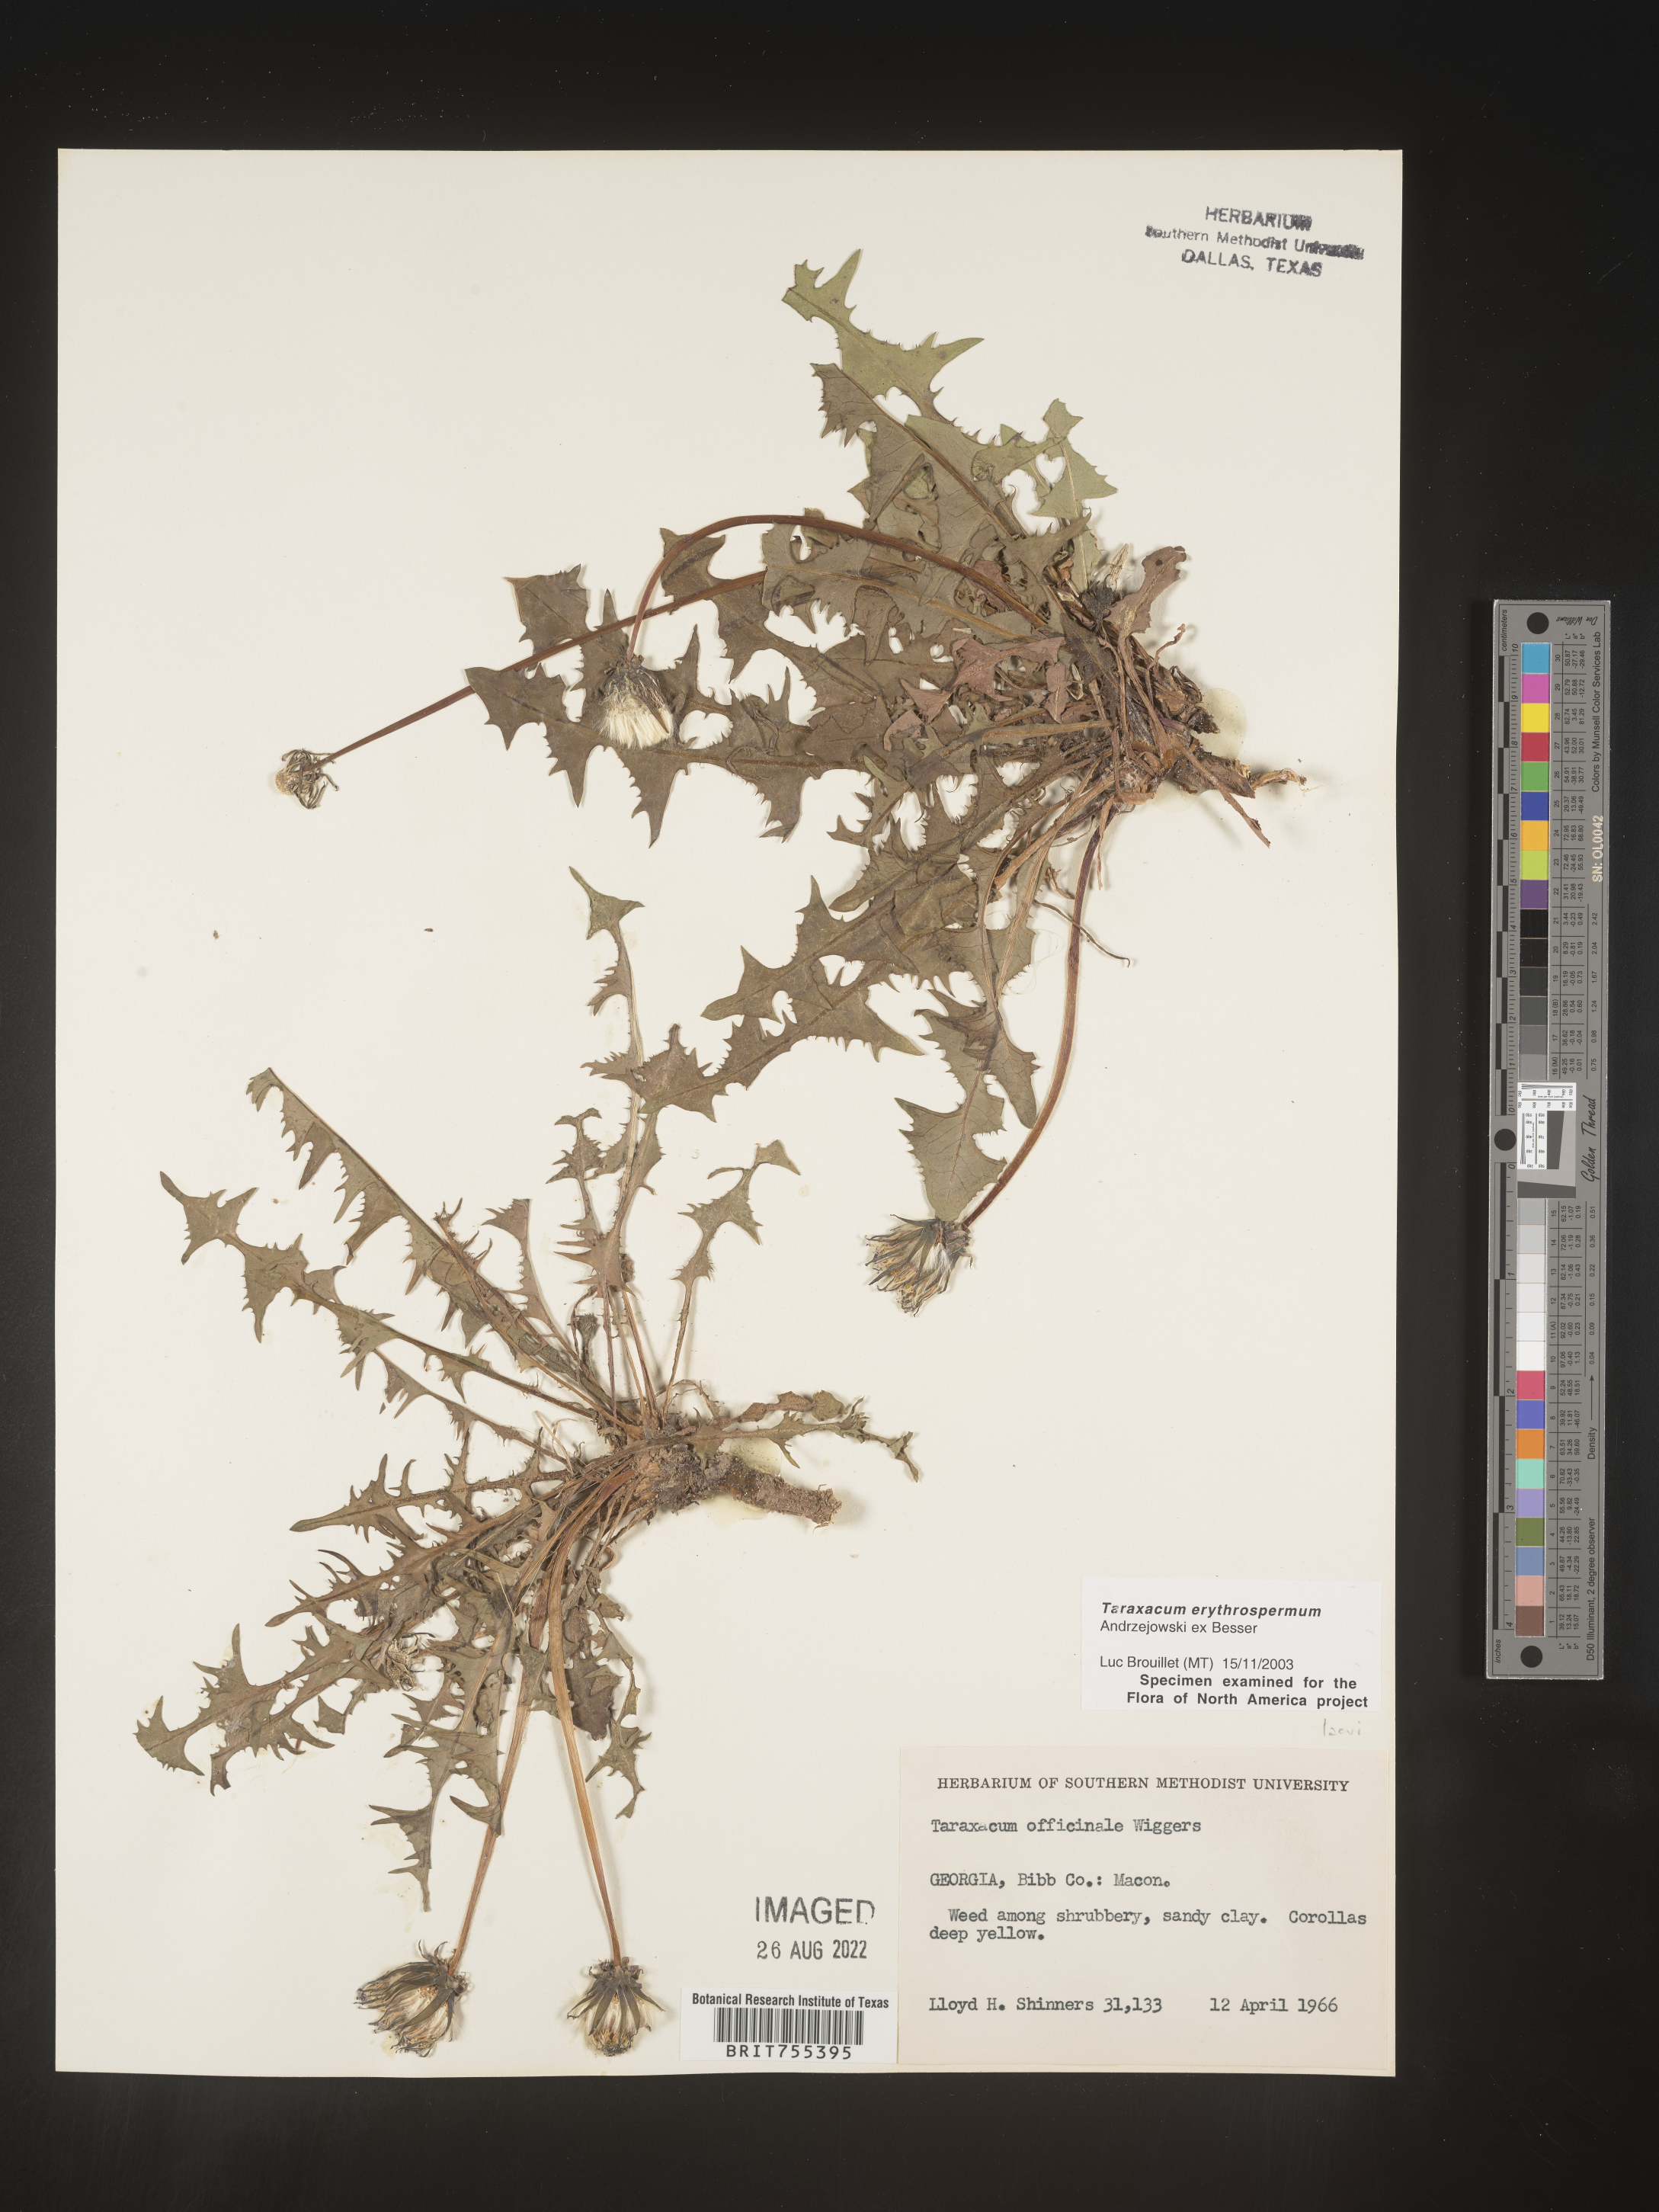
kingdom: Plantae
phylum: Tracheophyta
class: Magnoliopsida
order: Asterales
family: Asteraceae
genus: Taraxacum
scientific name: Taraxacum erythrospermum
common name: Rock dandelion
